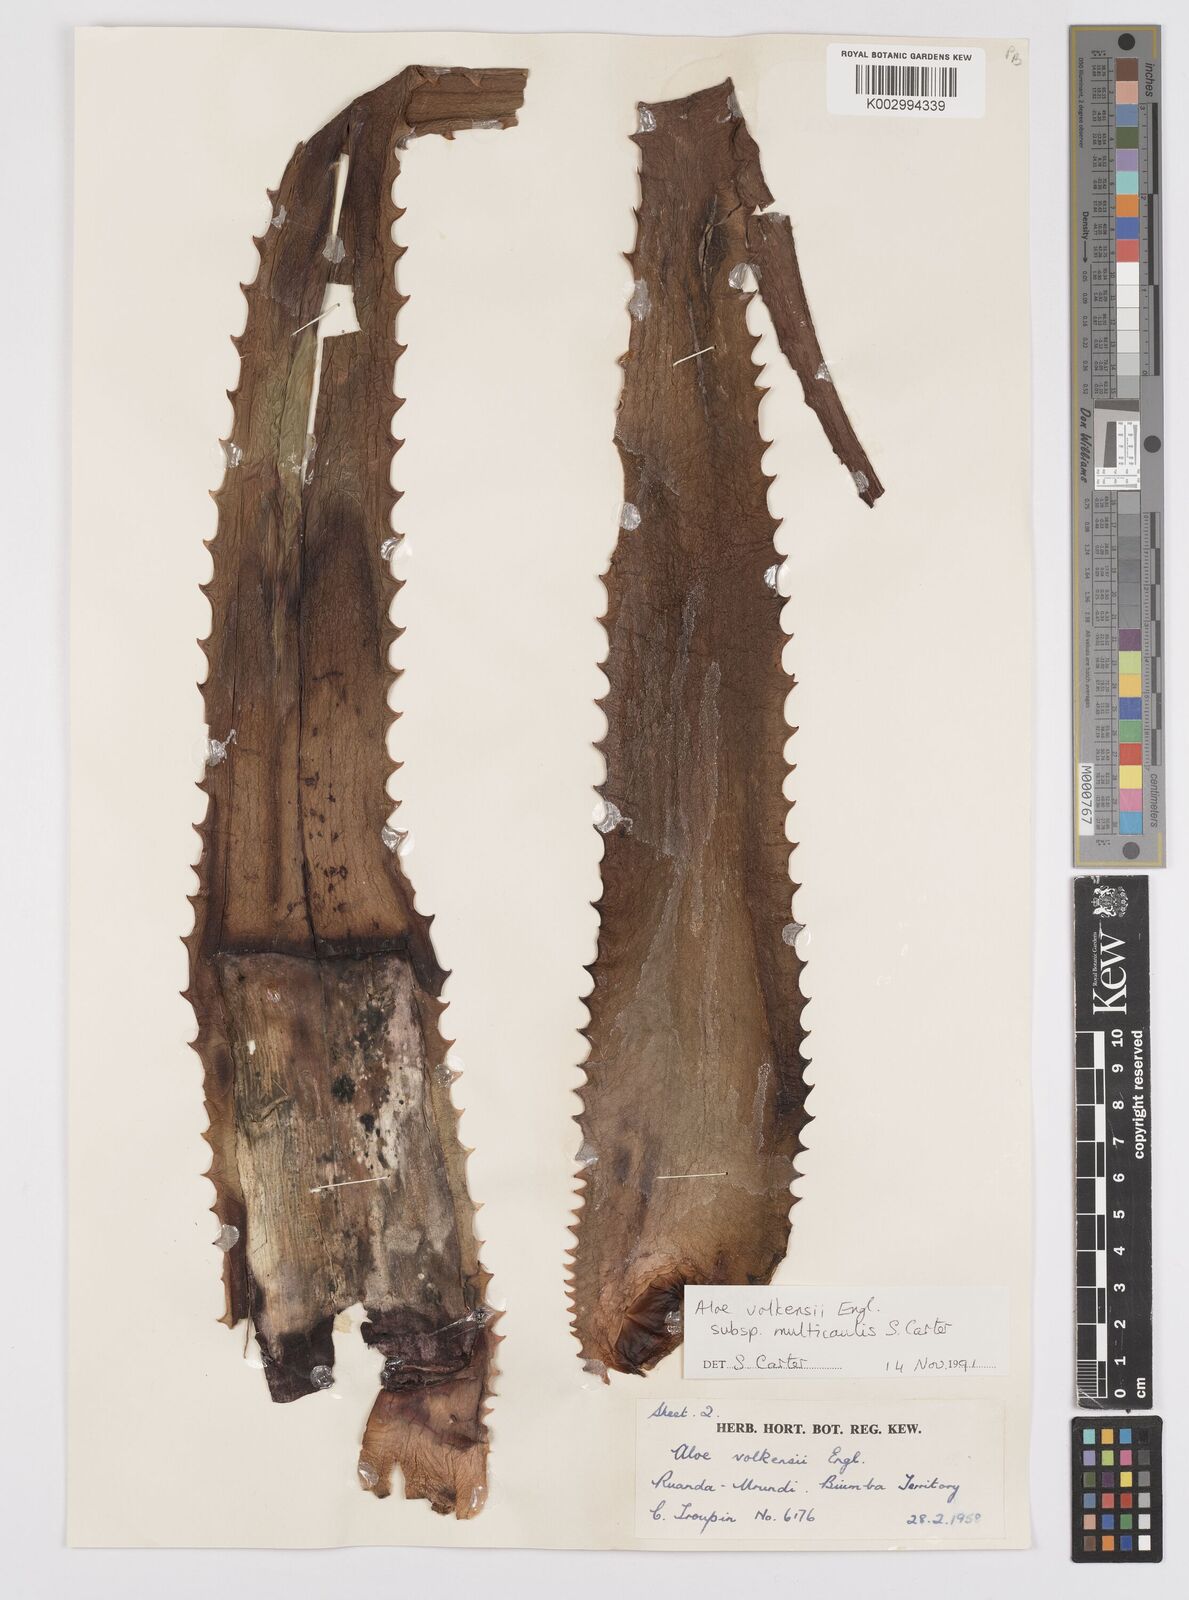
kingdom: Plantae
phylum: Tracheophyta
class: Liliopsida
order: Asparagales
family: Asphodelaceae
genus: Aloe
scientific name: Aloe volkensii
